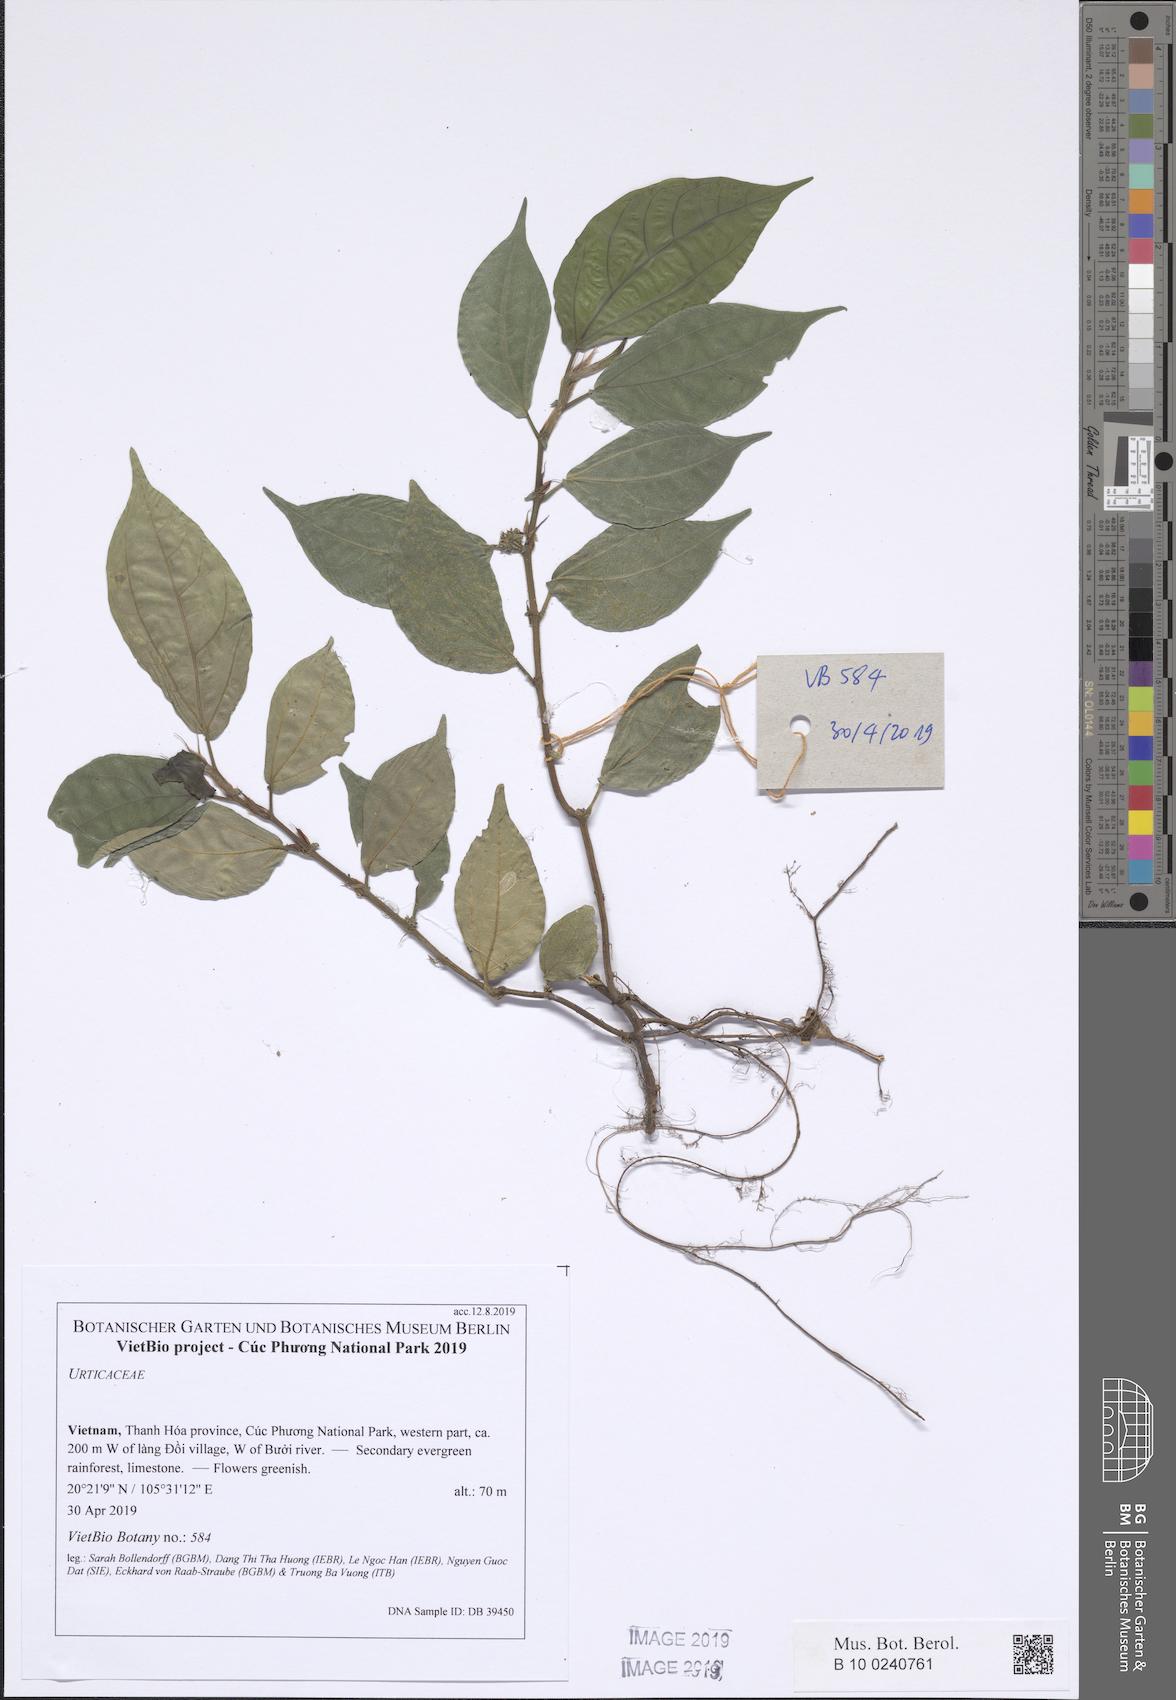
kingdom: Plantae
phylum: Tracheophyta
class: Magnoliopsida
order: Rosales
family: Urticaceae
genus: Pellionia
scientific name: Pellionia
